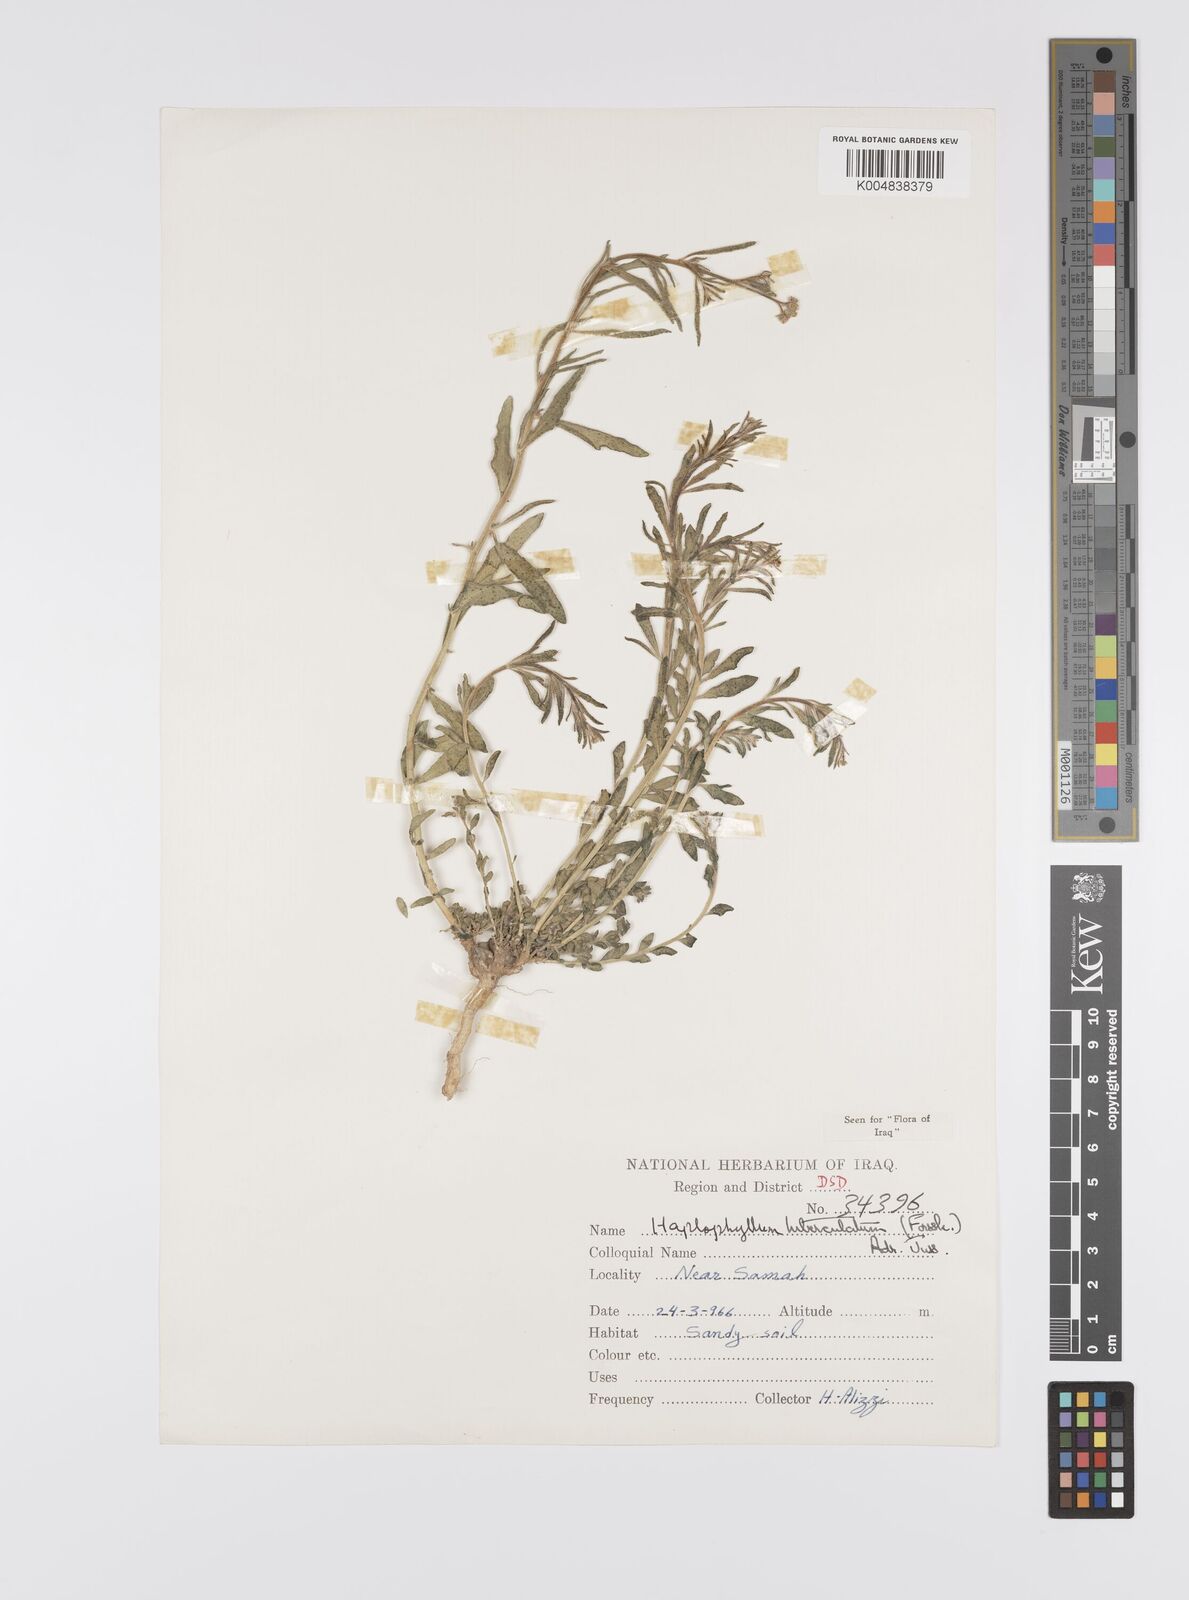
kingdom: Plantae
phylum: Tracheophyta
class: Magnoliopsida
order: Sapindales
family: Rutaceae
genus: Haplophyllum
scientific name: Haplophyllum tuberculatum
